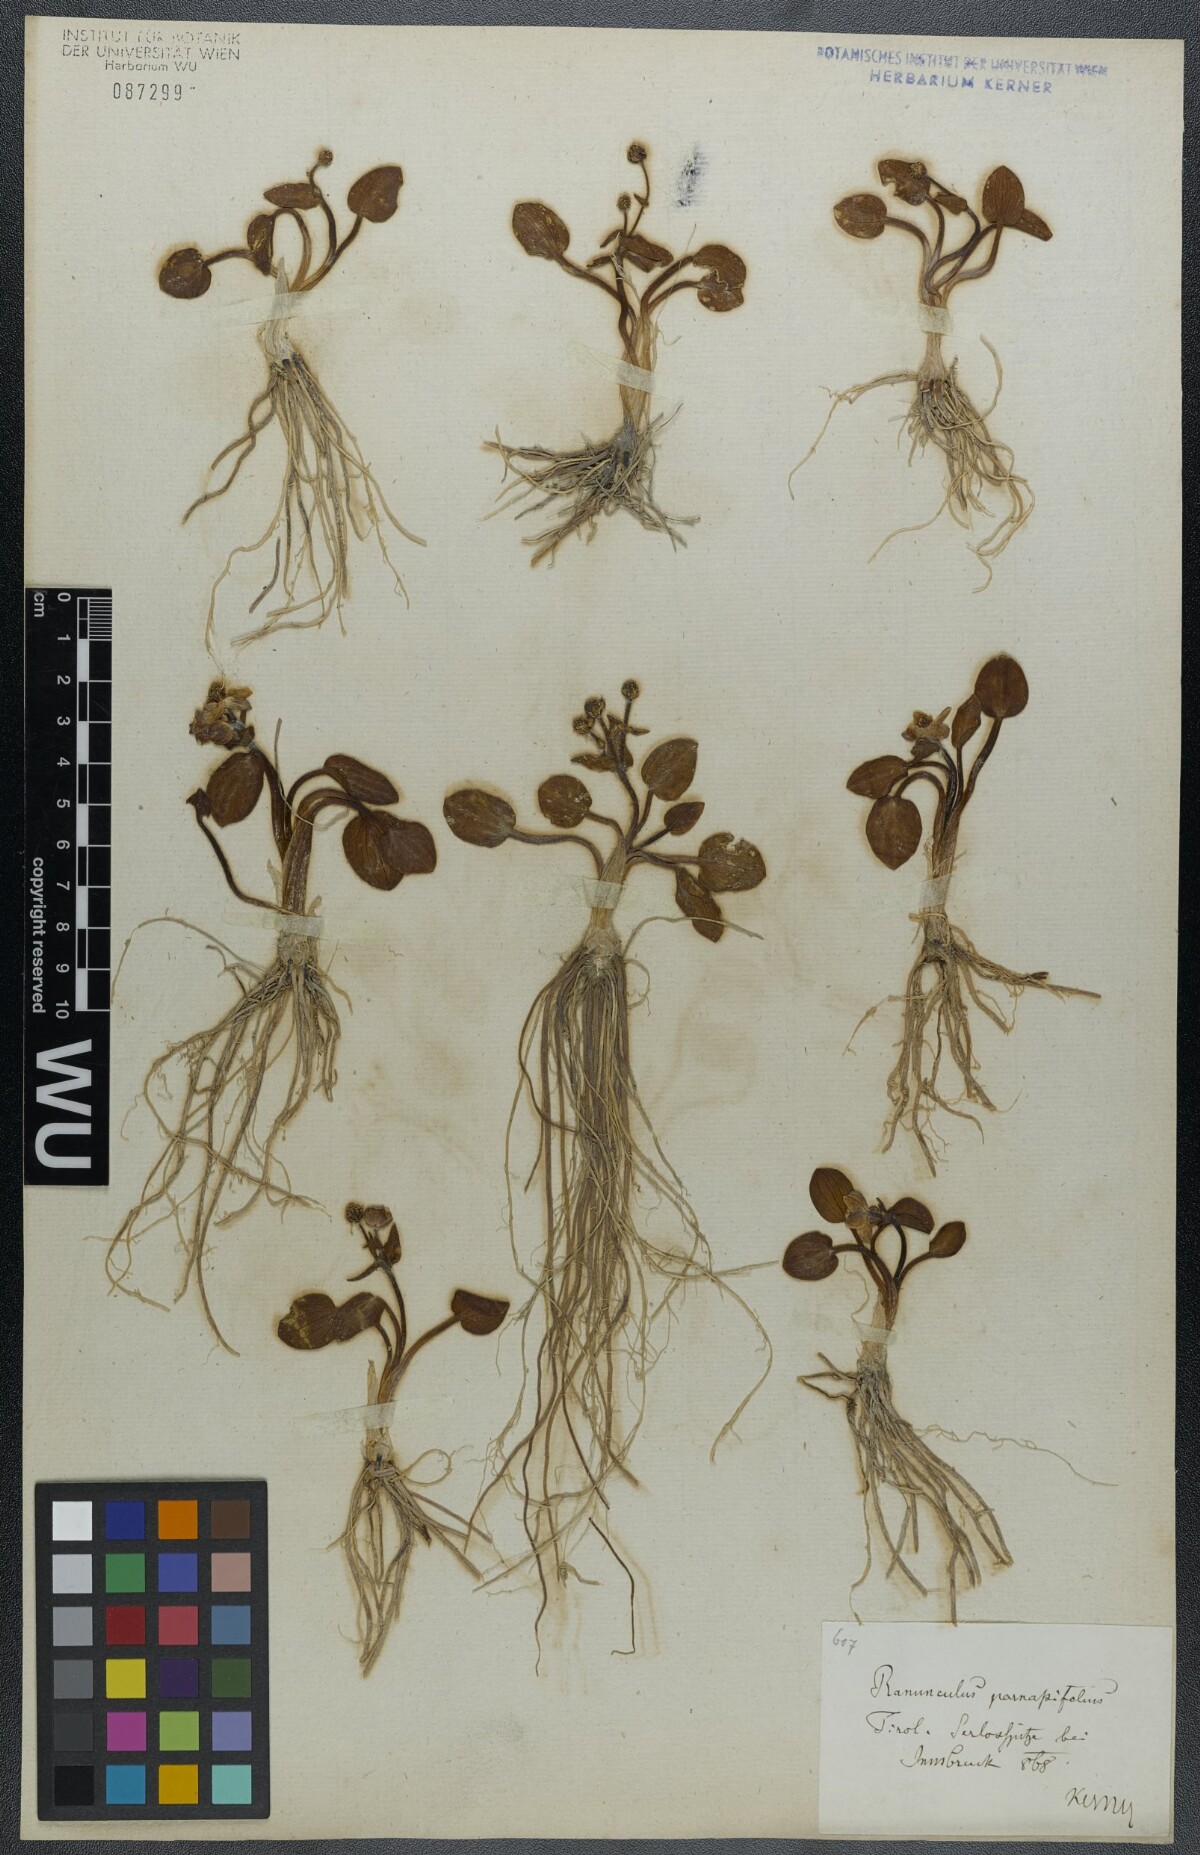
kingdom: Plantae
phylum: Tracheophyta
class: Magnoliopsida
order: Ranunculales
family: Ranunculaceae
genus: Ranunculus
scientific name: Ranunculus parnassiifolius
